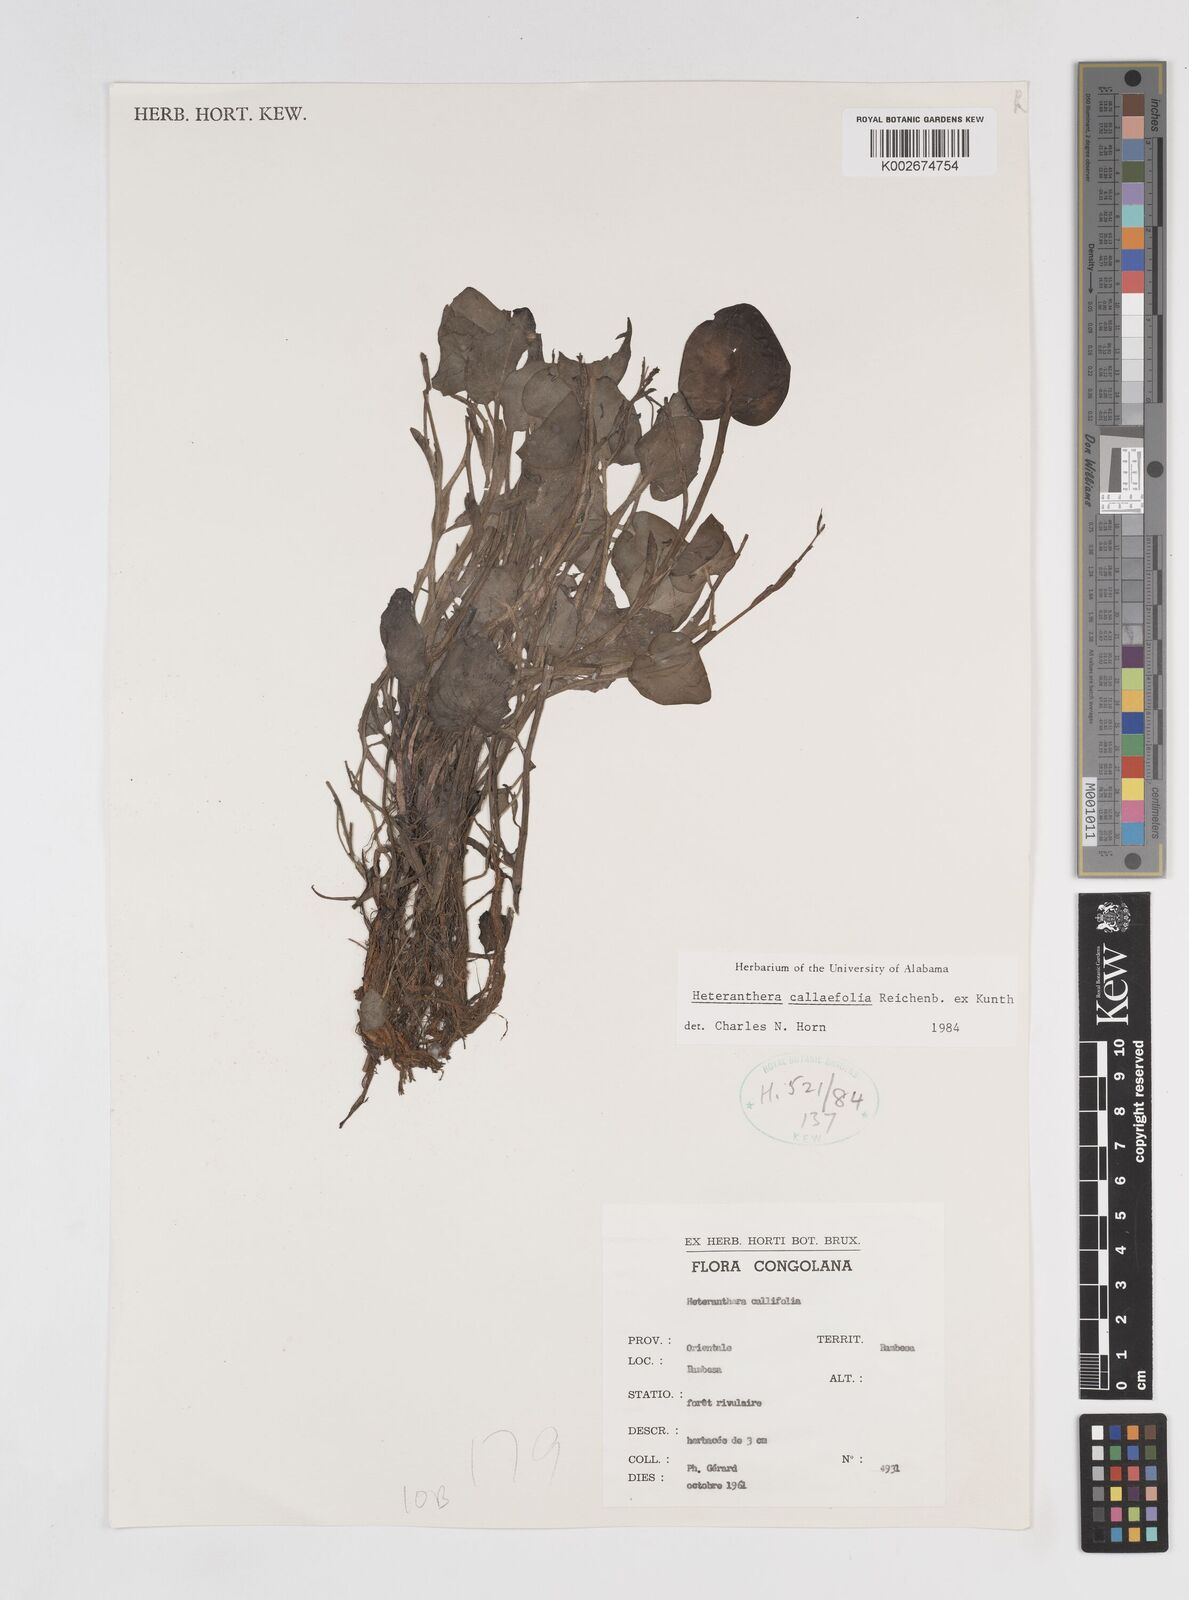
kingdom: Plantae
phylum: Tracheophyta
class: Liliopsida
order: Commelinales
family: Pontederiaceae
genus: Heteranthera
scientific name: Heteranthera callifolia
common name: Mud plantain
